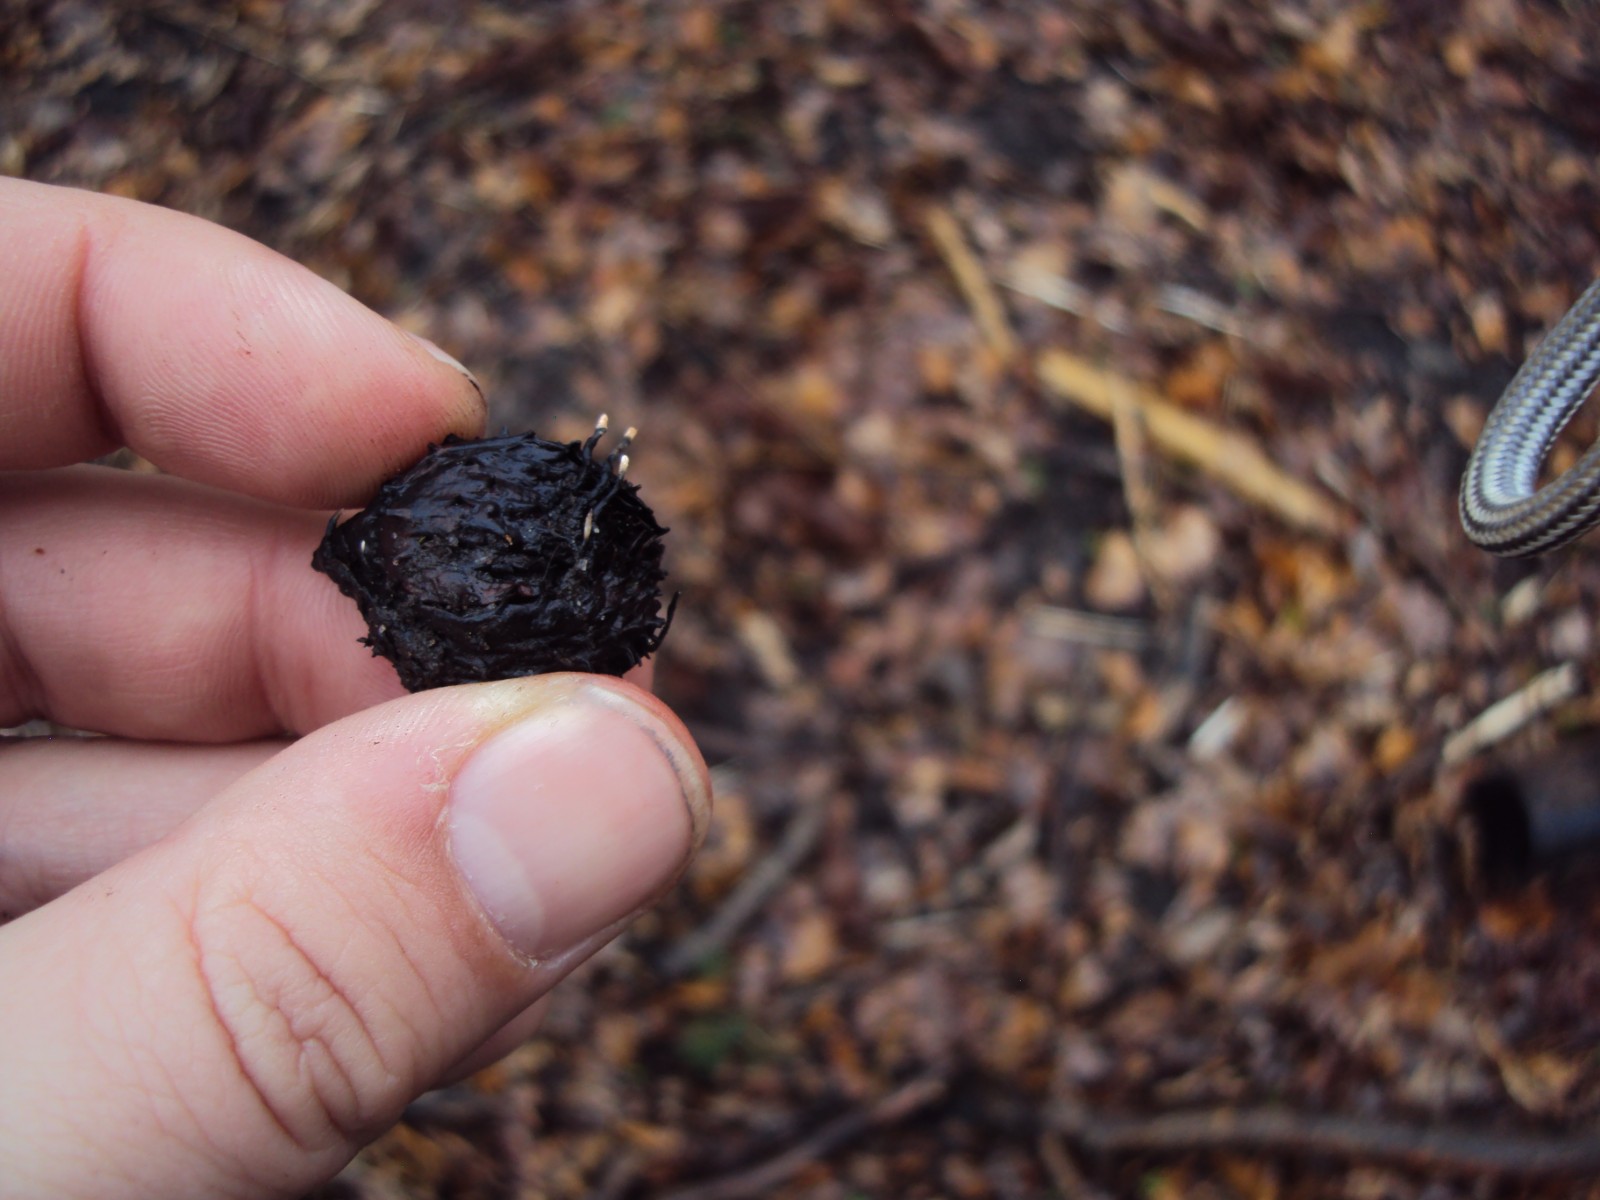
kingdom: Fungi
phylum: Ascomycota
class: Sordariomycetes
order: Xylariales
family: Xylariaceae
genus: Xylaria
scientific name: Xylaria carpophila
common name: bogskål-stødsvamp
